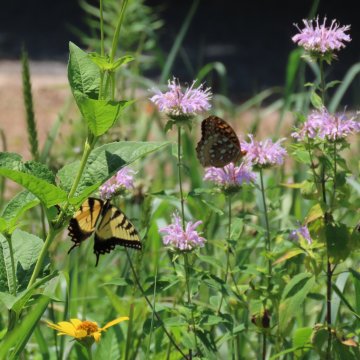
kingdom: Animalia
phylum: Arthropoda
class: Insecta
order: Lepidoptera
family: Nymphalidae
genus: Speyeria
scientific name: Speyeria cybele
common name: Great Spangled Fritillary
